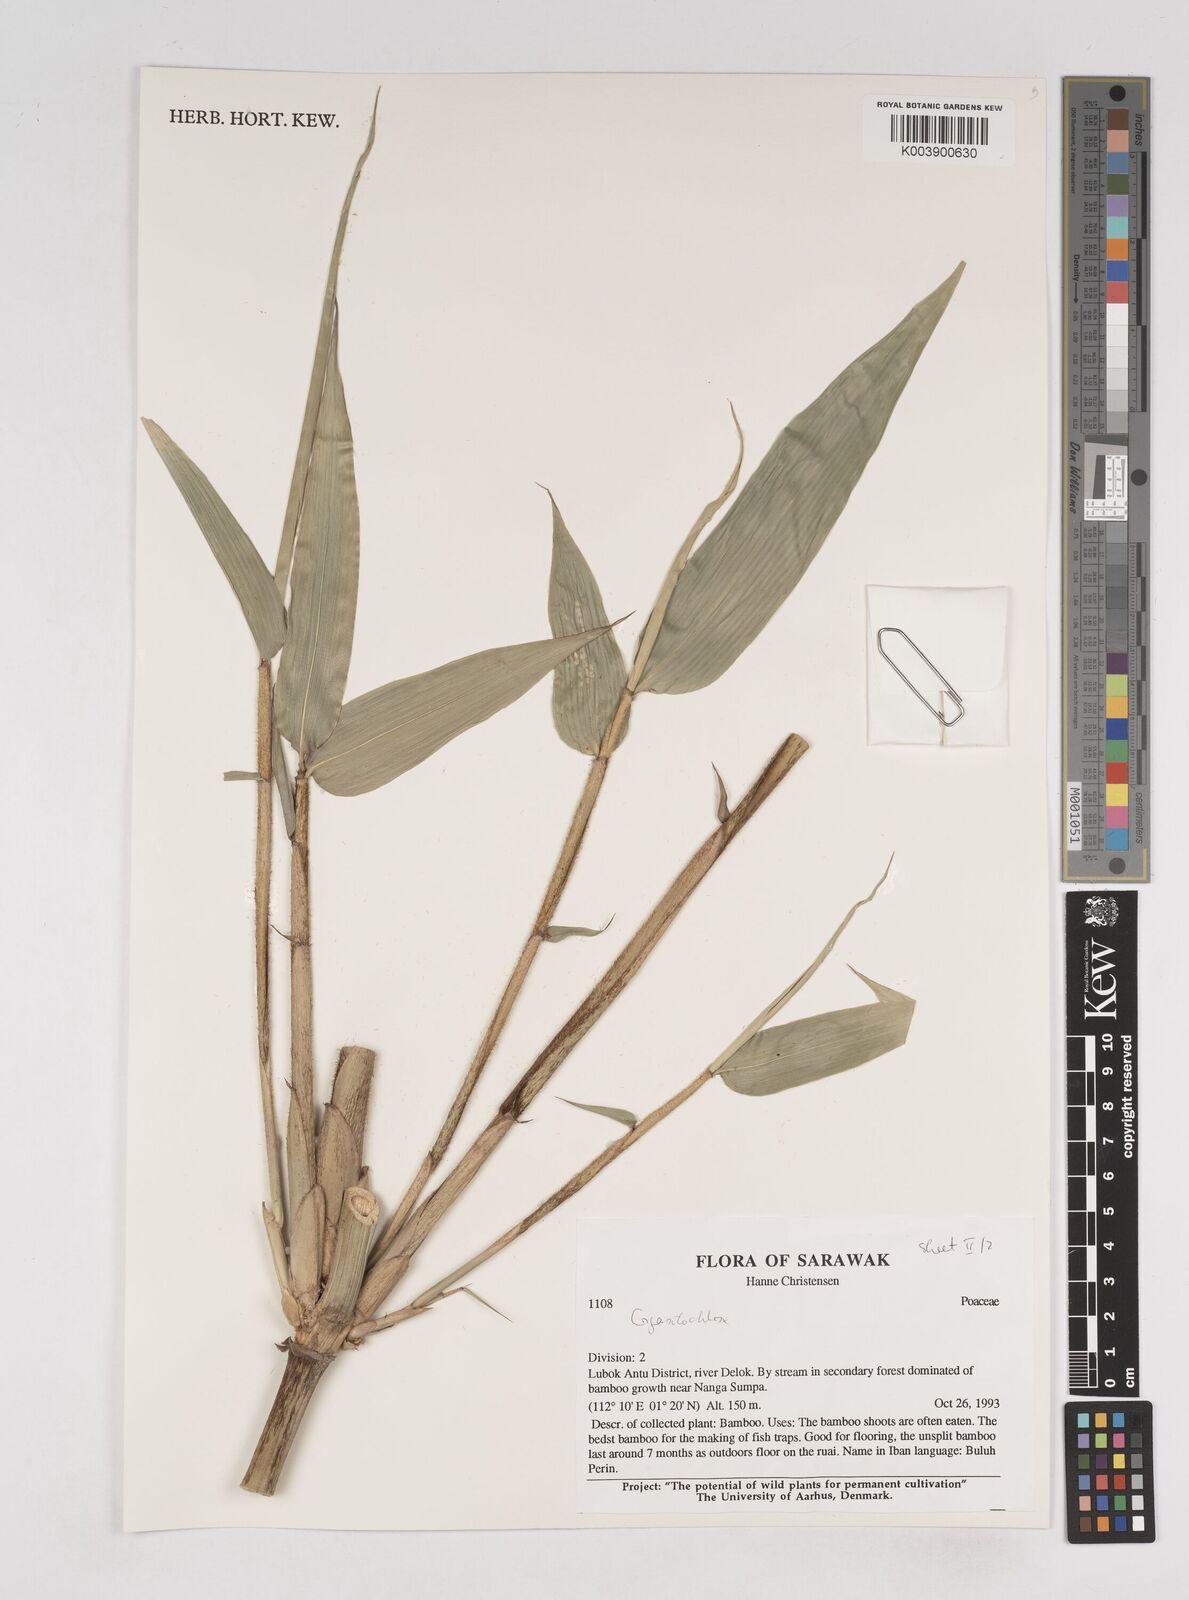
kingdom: Plantae
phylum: Tracheophyta
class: Liliopsida
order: Poales
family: Poaceae
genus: Gigantochloa
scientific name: Gigantochloa
